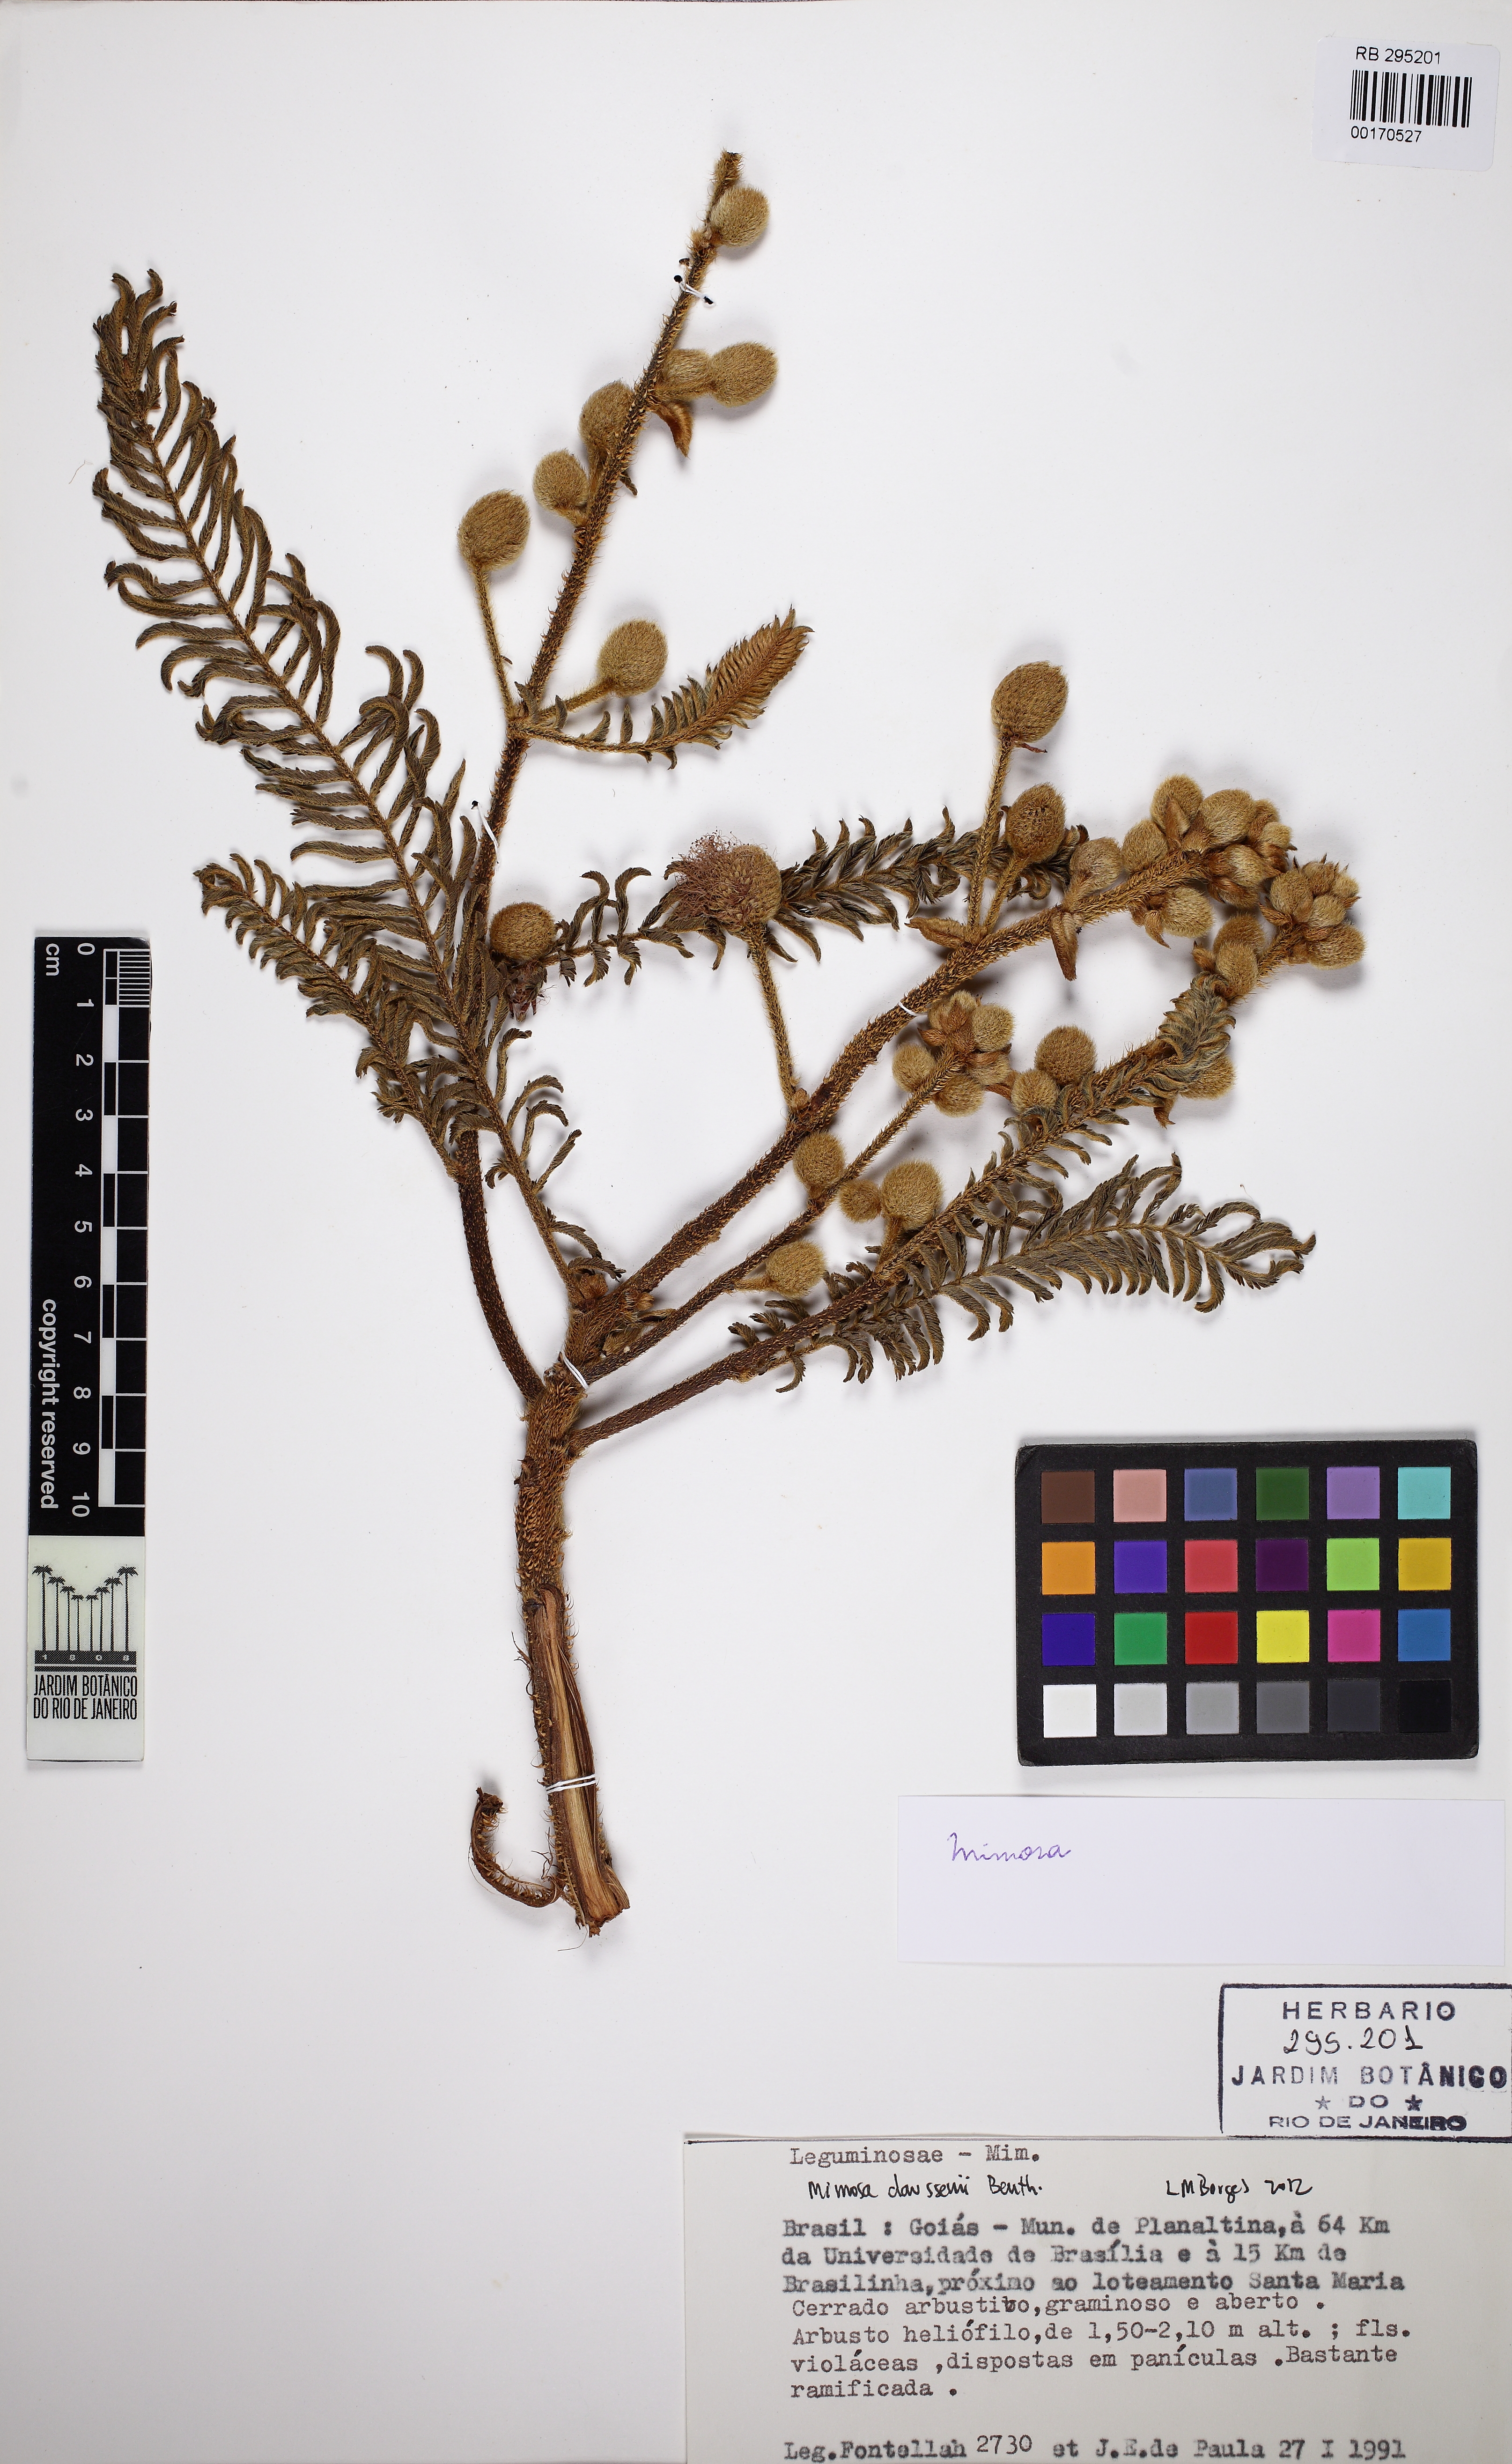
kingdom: Plantae
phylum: Tracheophyta
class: Magnoliopsida
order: Fabales
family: Fabaceae
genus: Mimosa
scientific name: Mimosa claussenii
